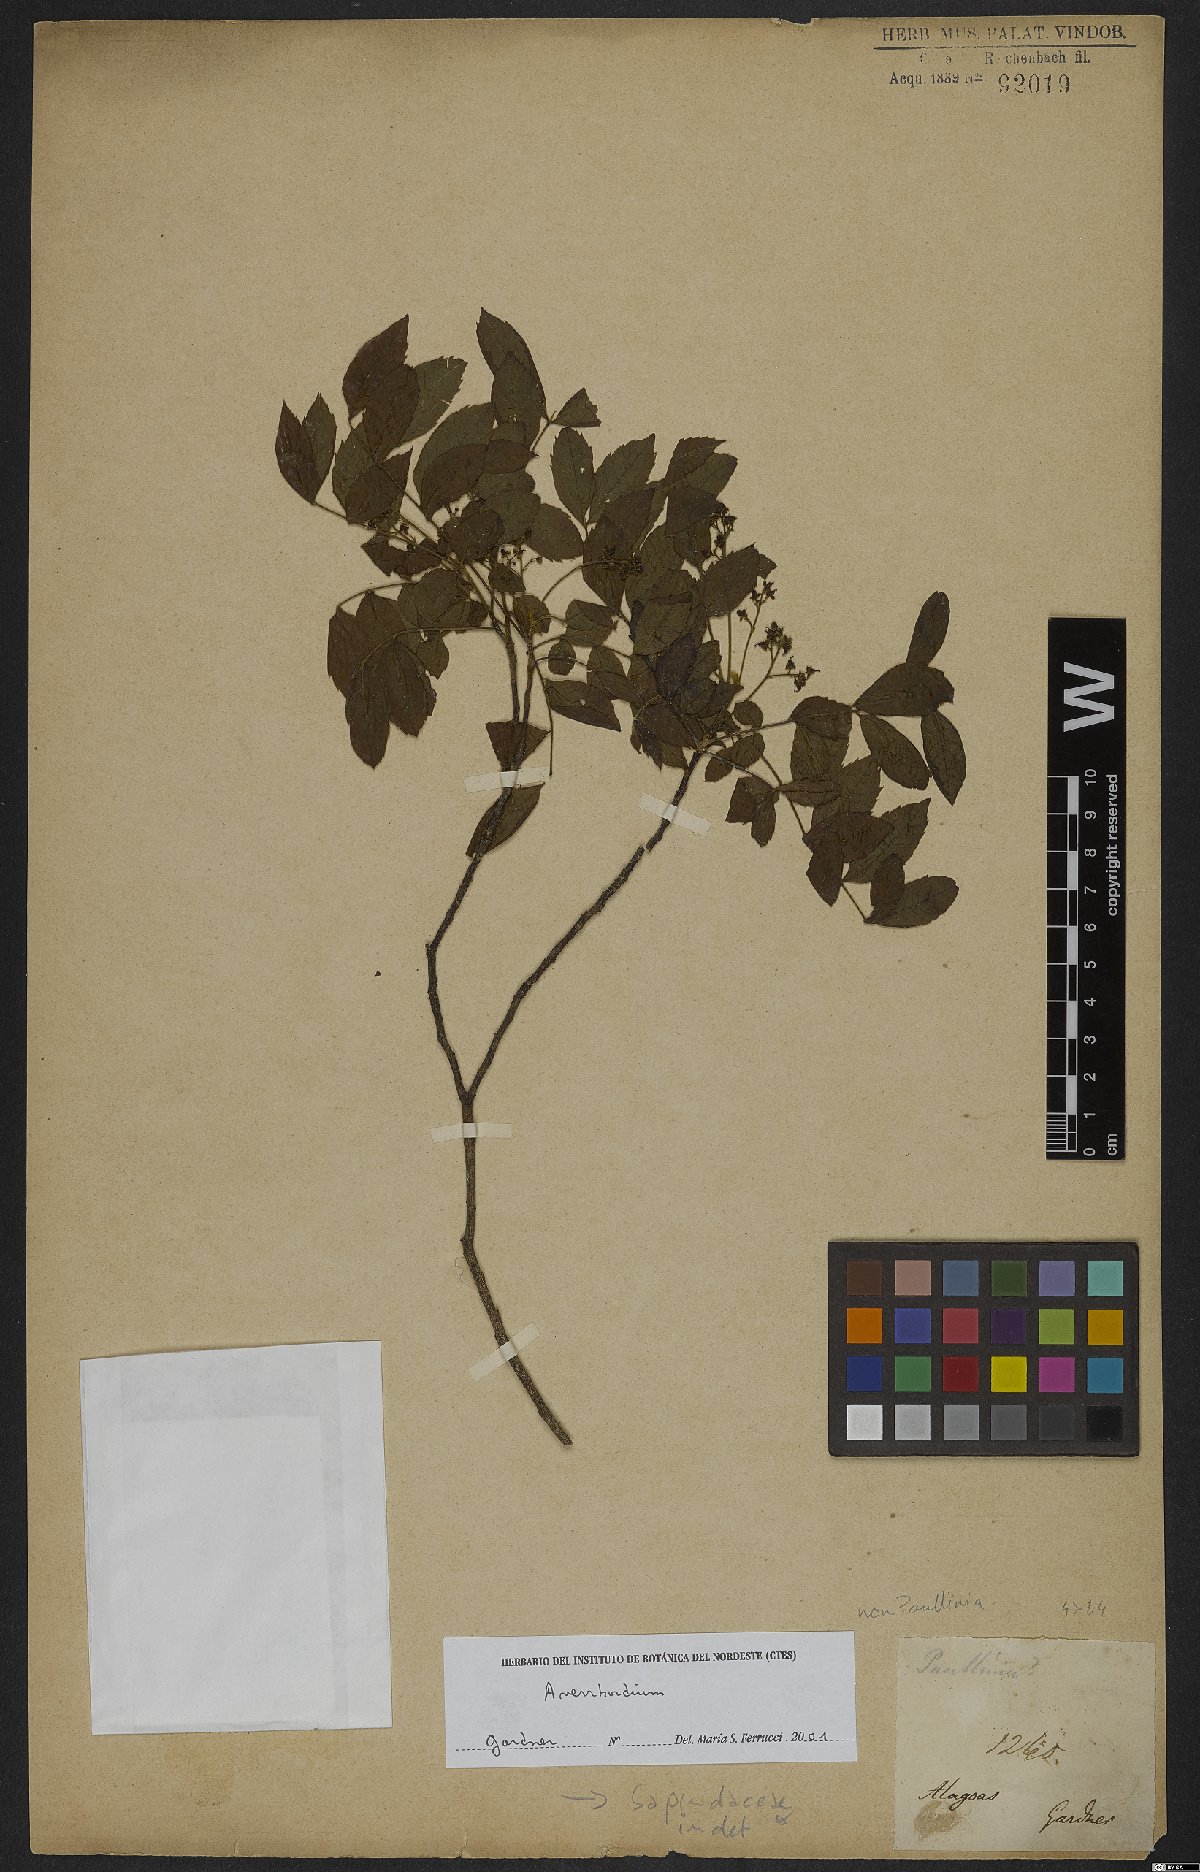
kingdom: Plantae
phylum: Tracheophyta
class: Magnoliopsida
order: Sapindales
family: Sapindaceae
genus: Averrhoidium
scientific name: Averrhoidium
